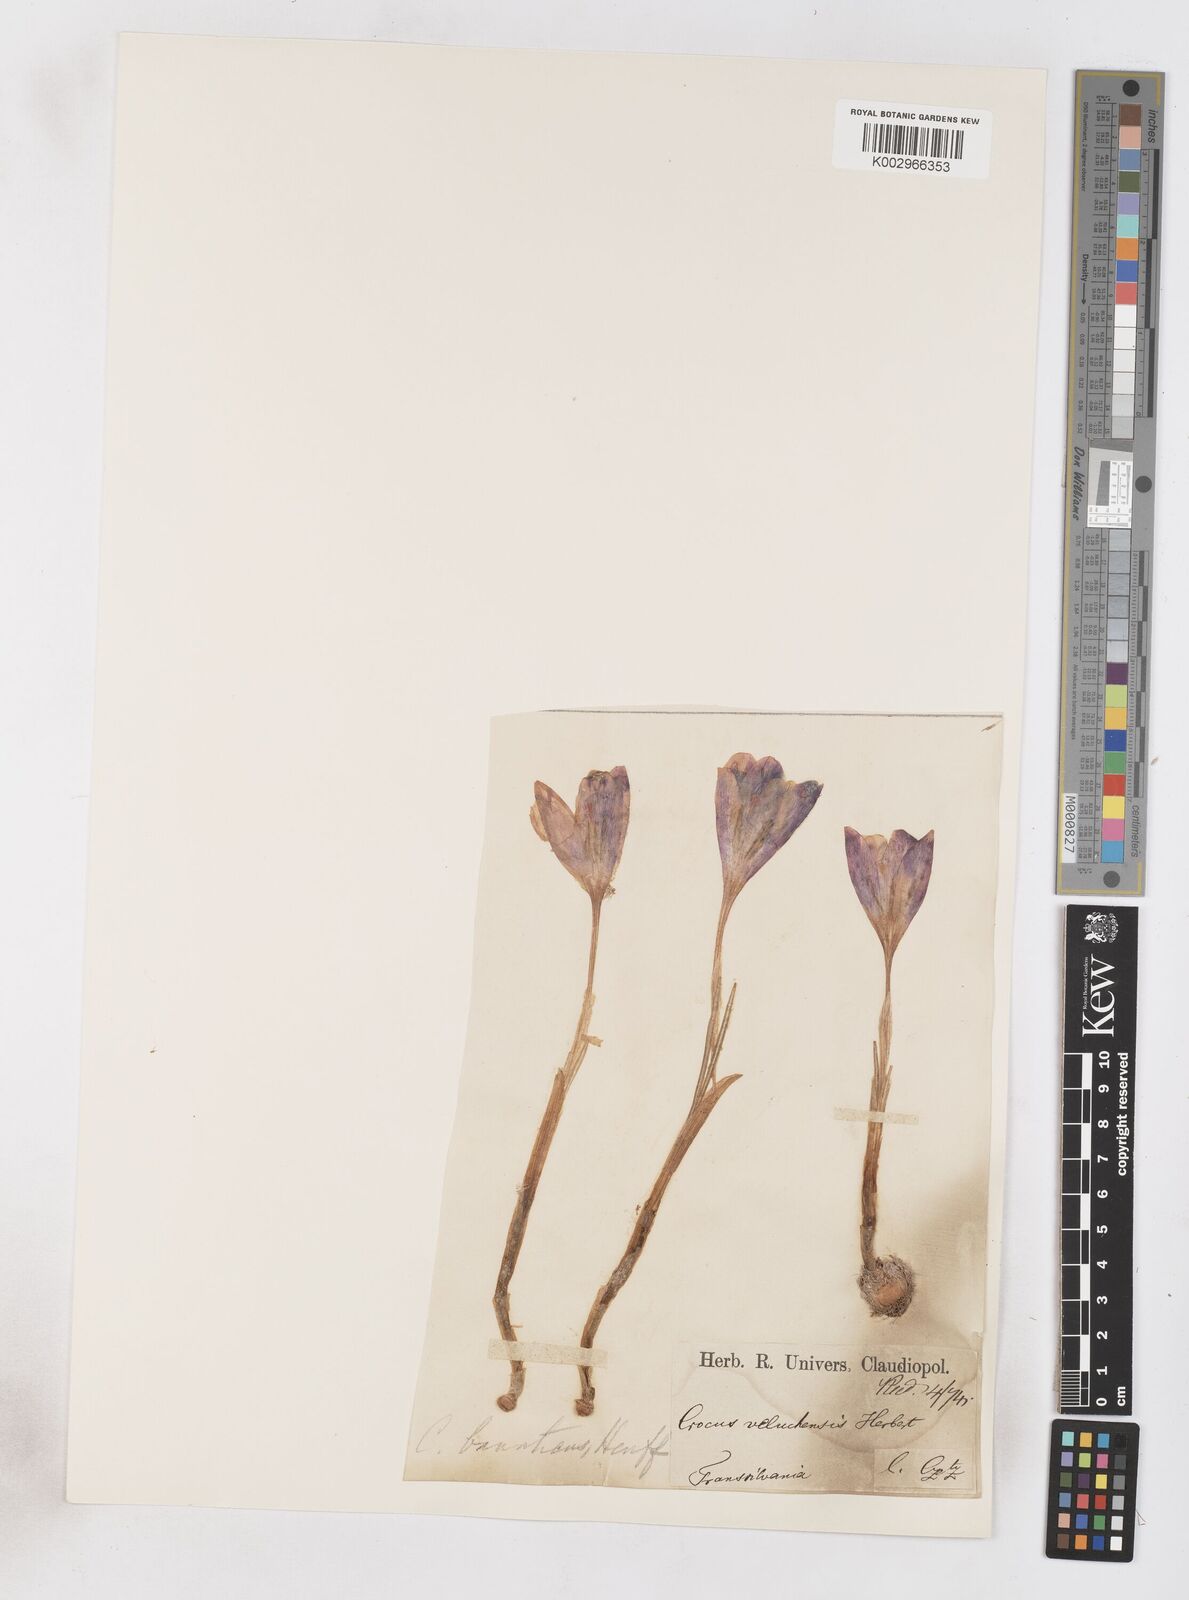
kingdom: Plantae
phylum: Tracheophyta
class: Liliopsida
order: Asparagales
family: Iridaceae
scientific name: Iridaceae
